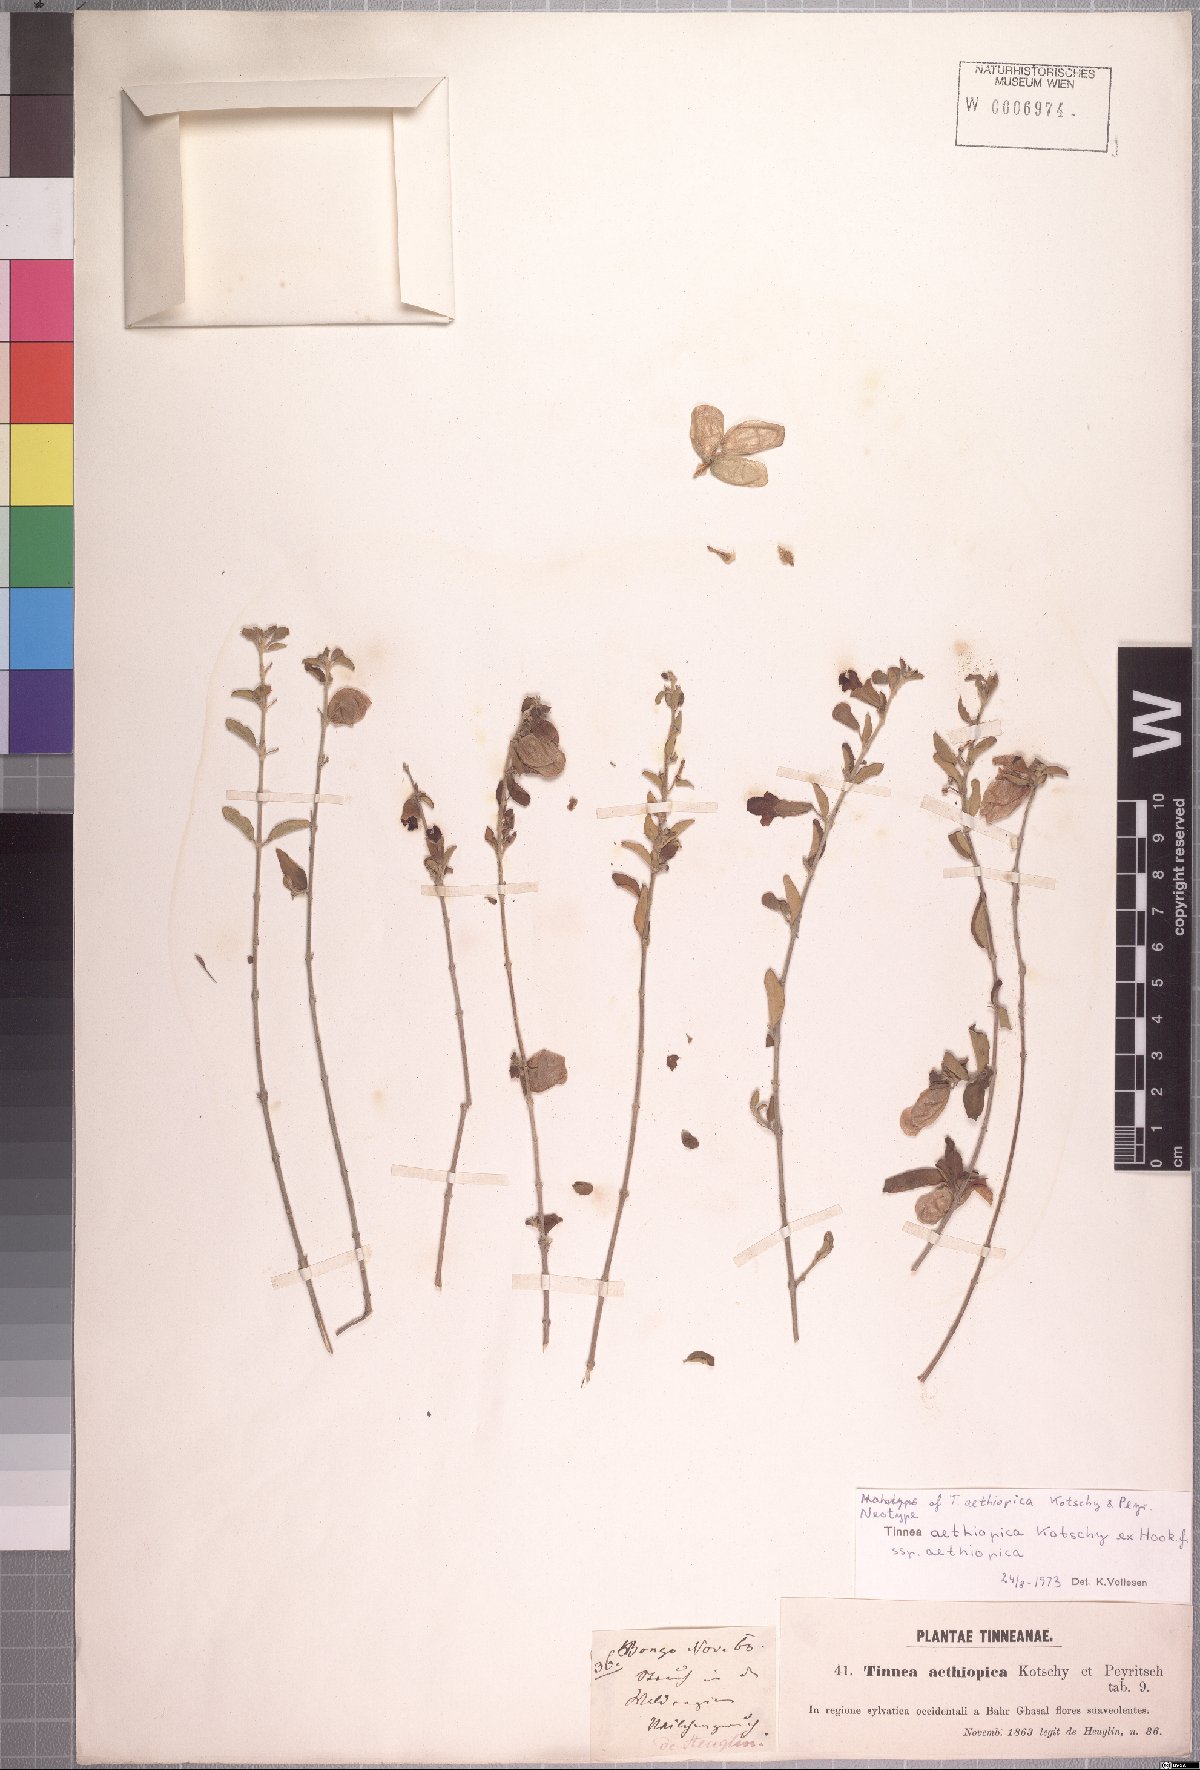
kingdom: Plantae
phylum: Tracheophyta
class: Magnoliopsida
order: Lamiales
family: Lamiaceae
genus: Tinnea
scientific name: Tinnea aethiopica
